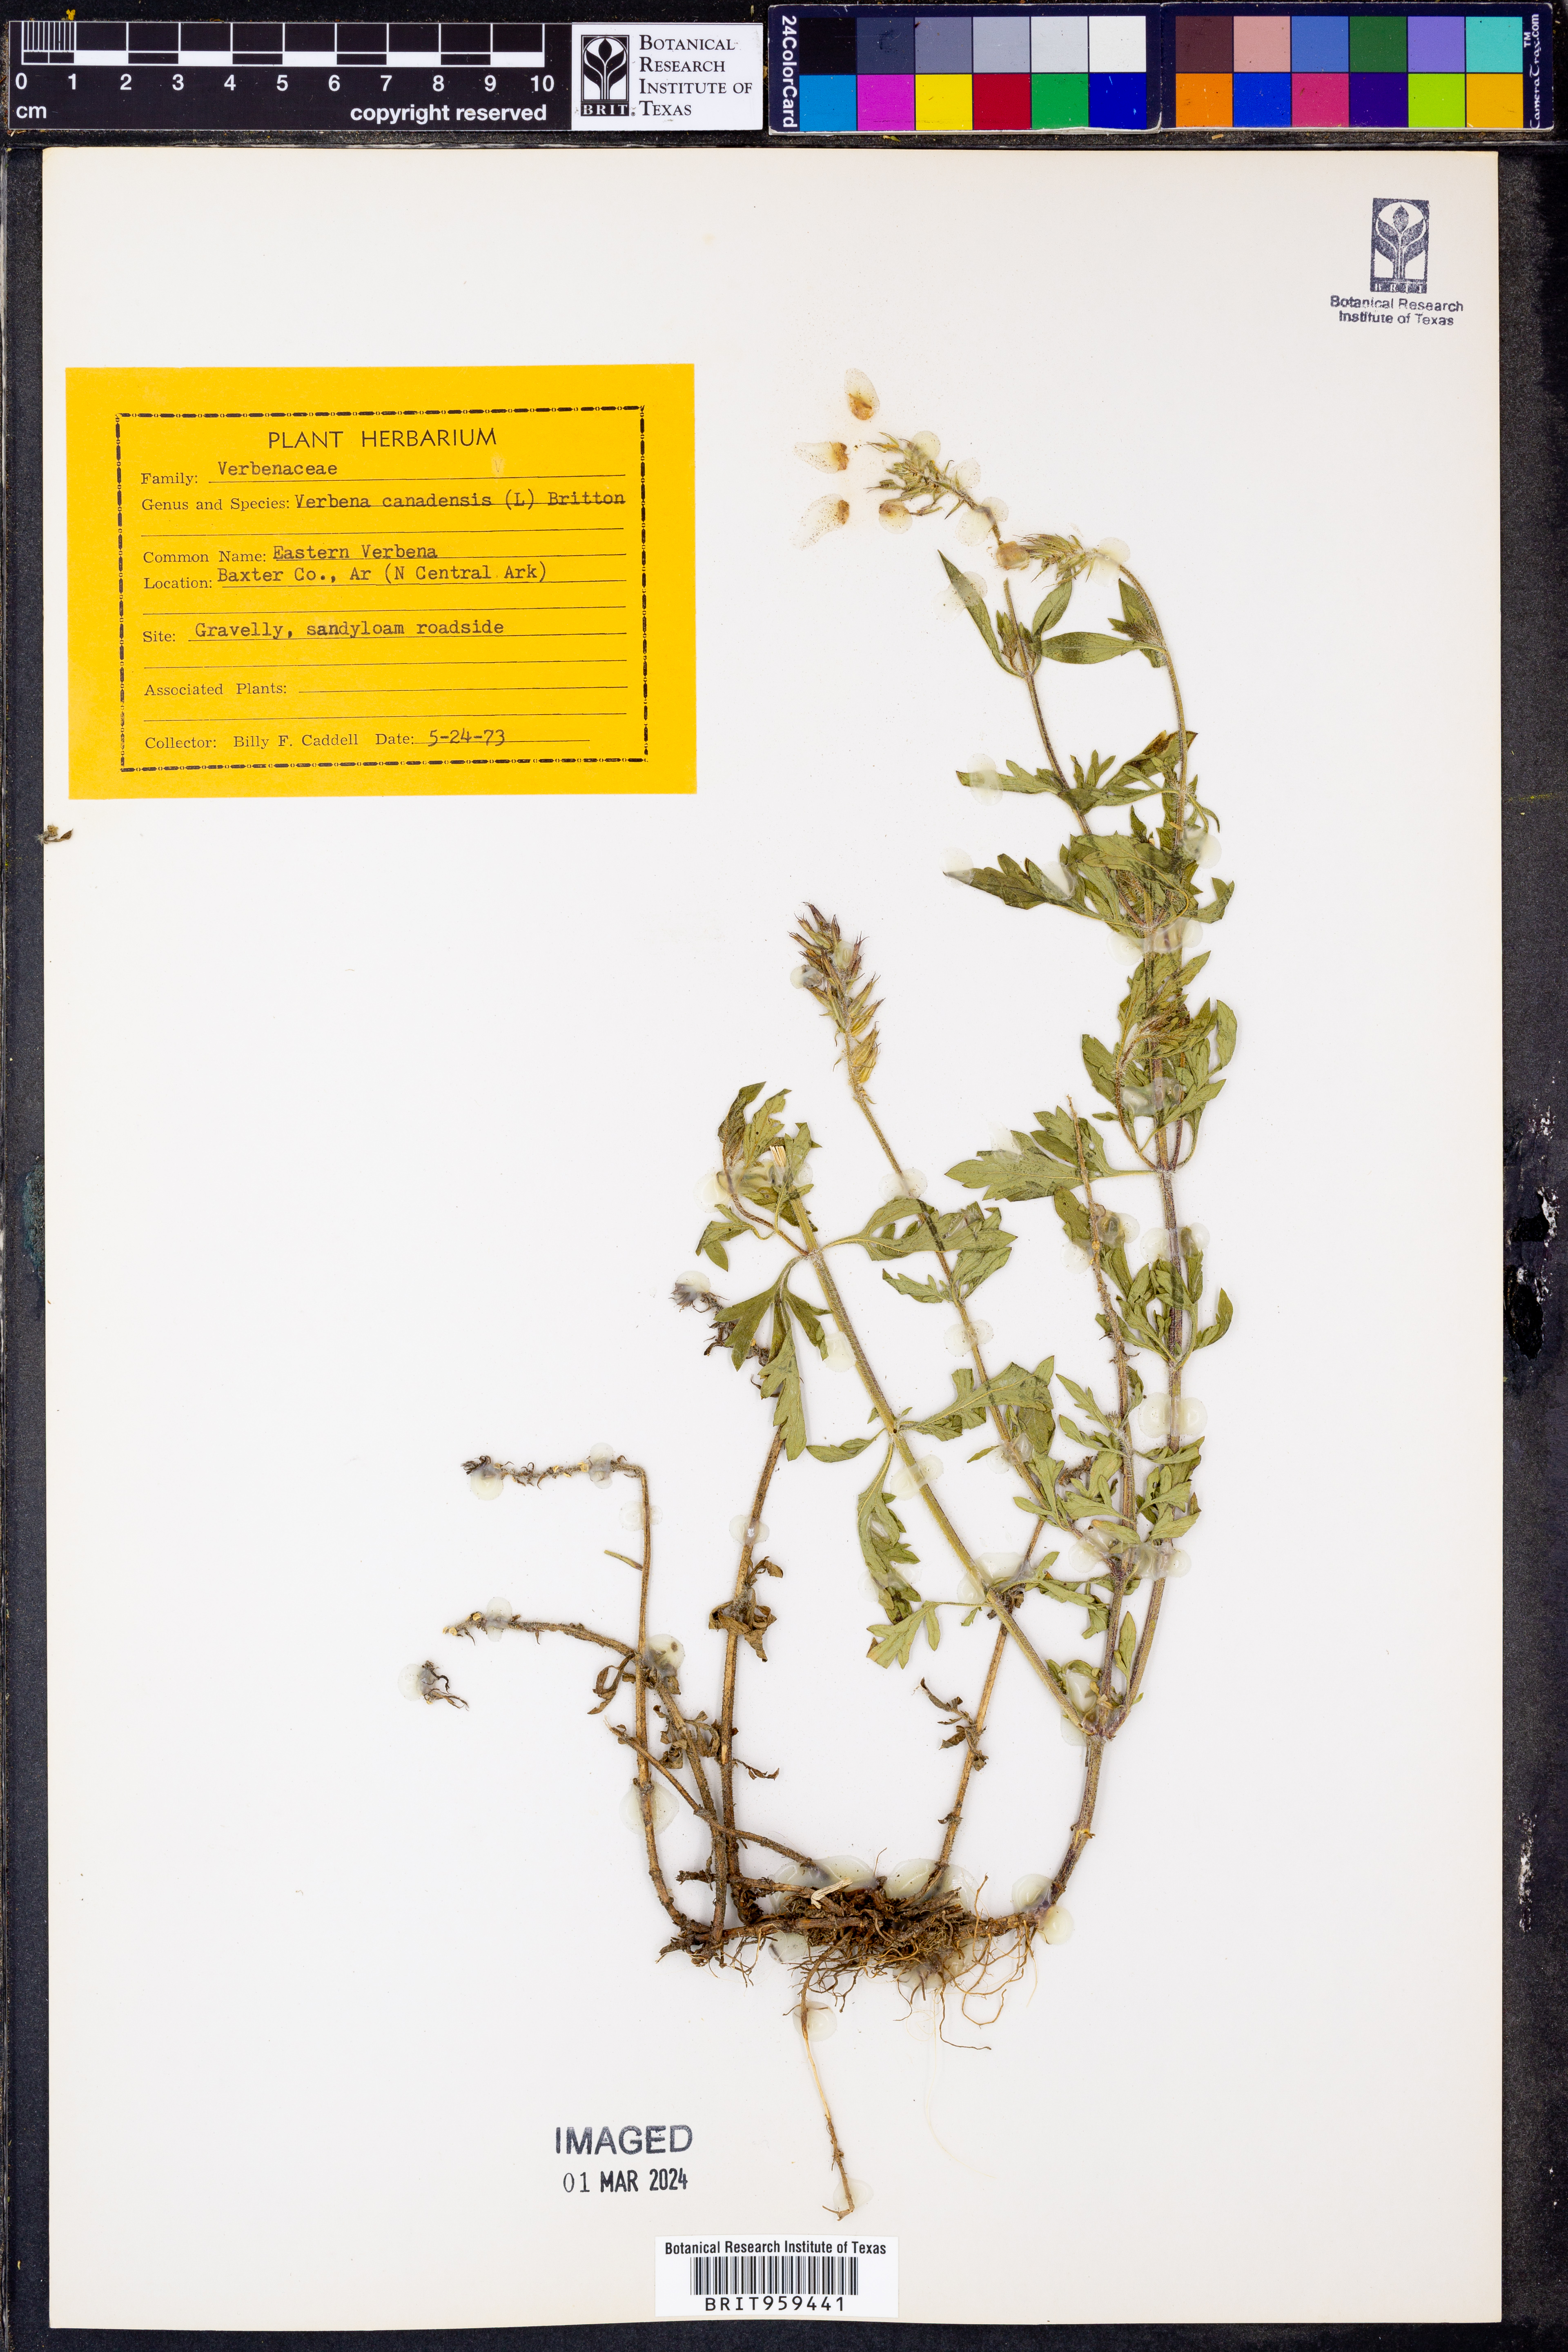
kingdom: Plantae
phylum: Tracheophyta
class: Magnoliopsida
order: Lamiales
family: Verbenaceae
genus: Verbena
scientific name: Verbena canadensis
